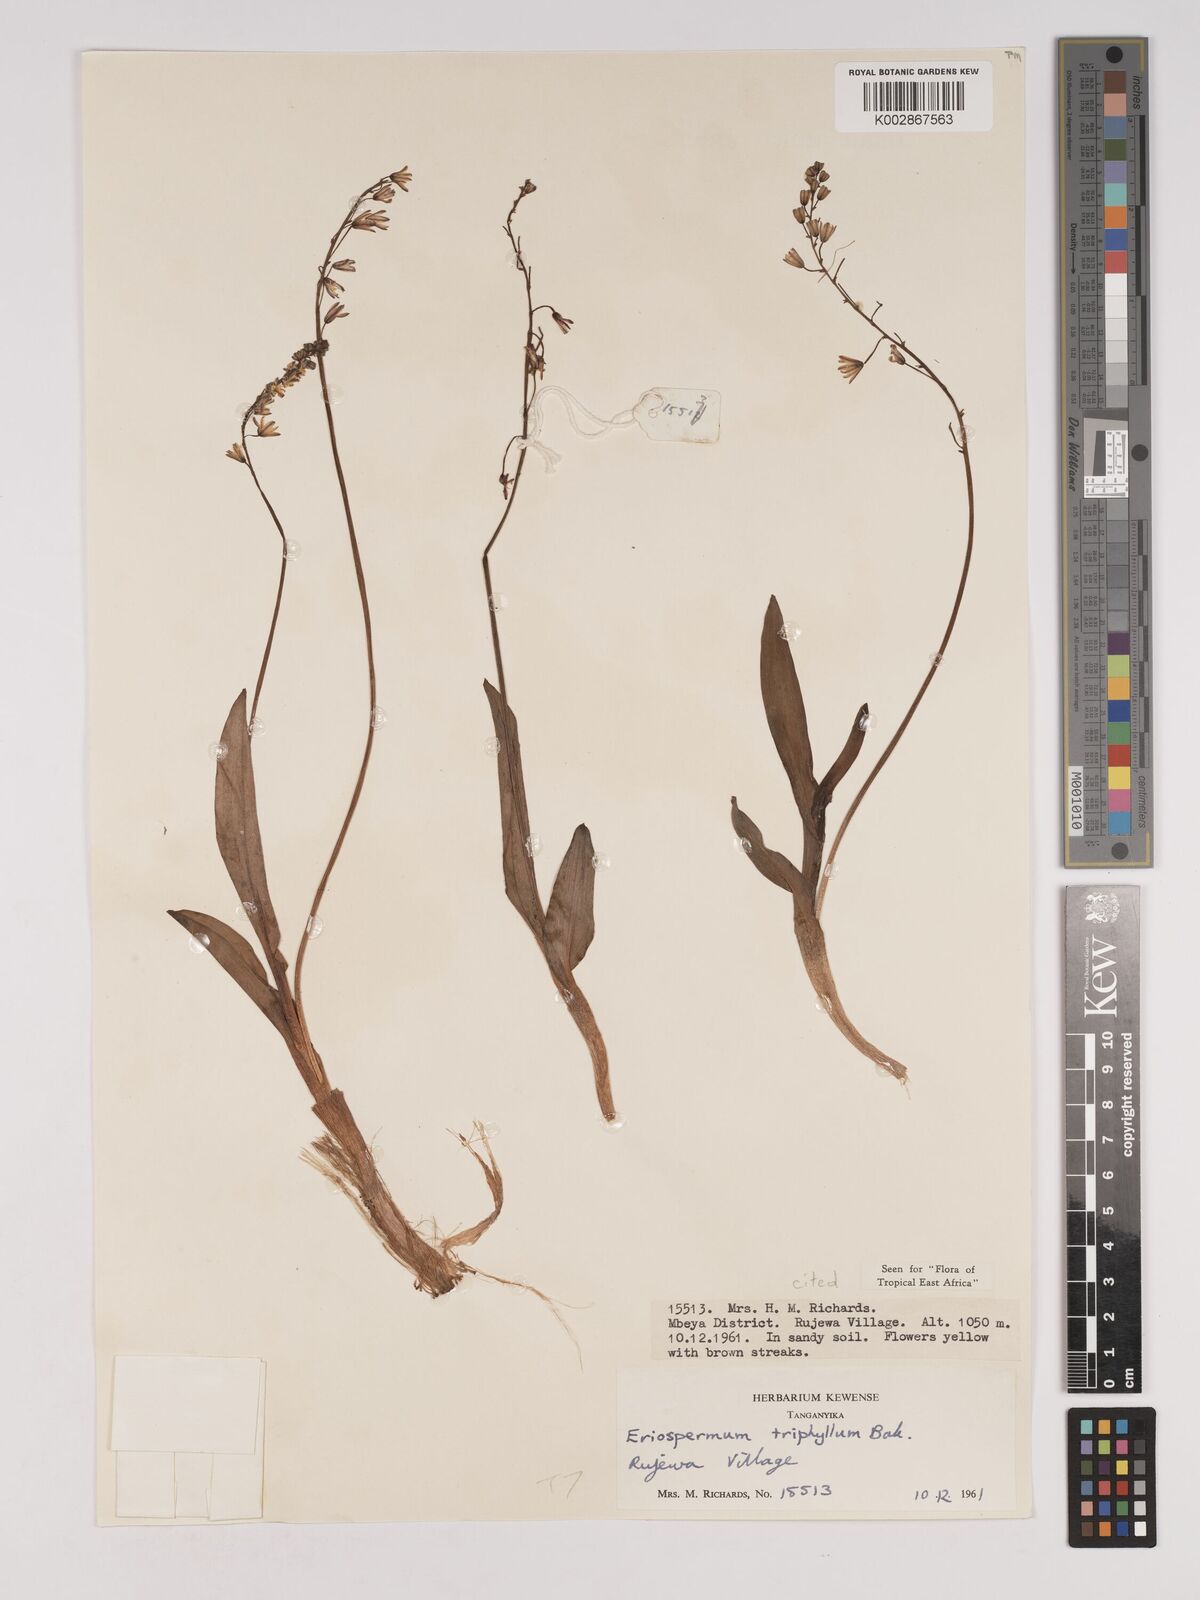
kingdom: Plantae
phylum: Tracheophyta
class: Liliopsida
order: Asparagales
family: Asparagaceae
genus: Eriospermum
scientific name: Eriospermum triphyllum
